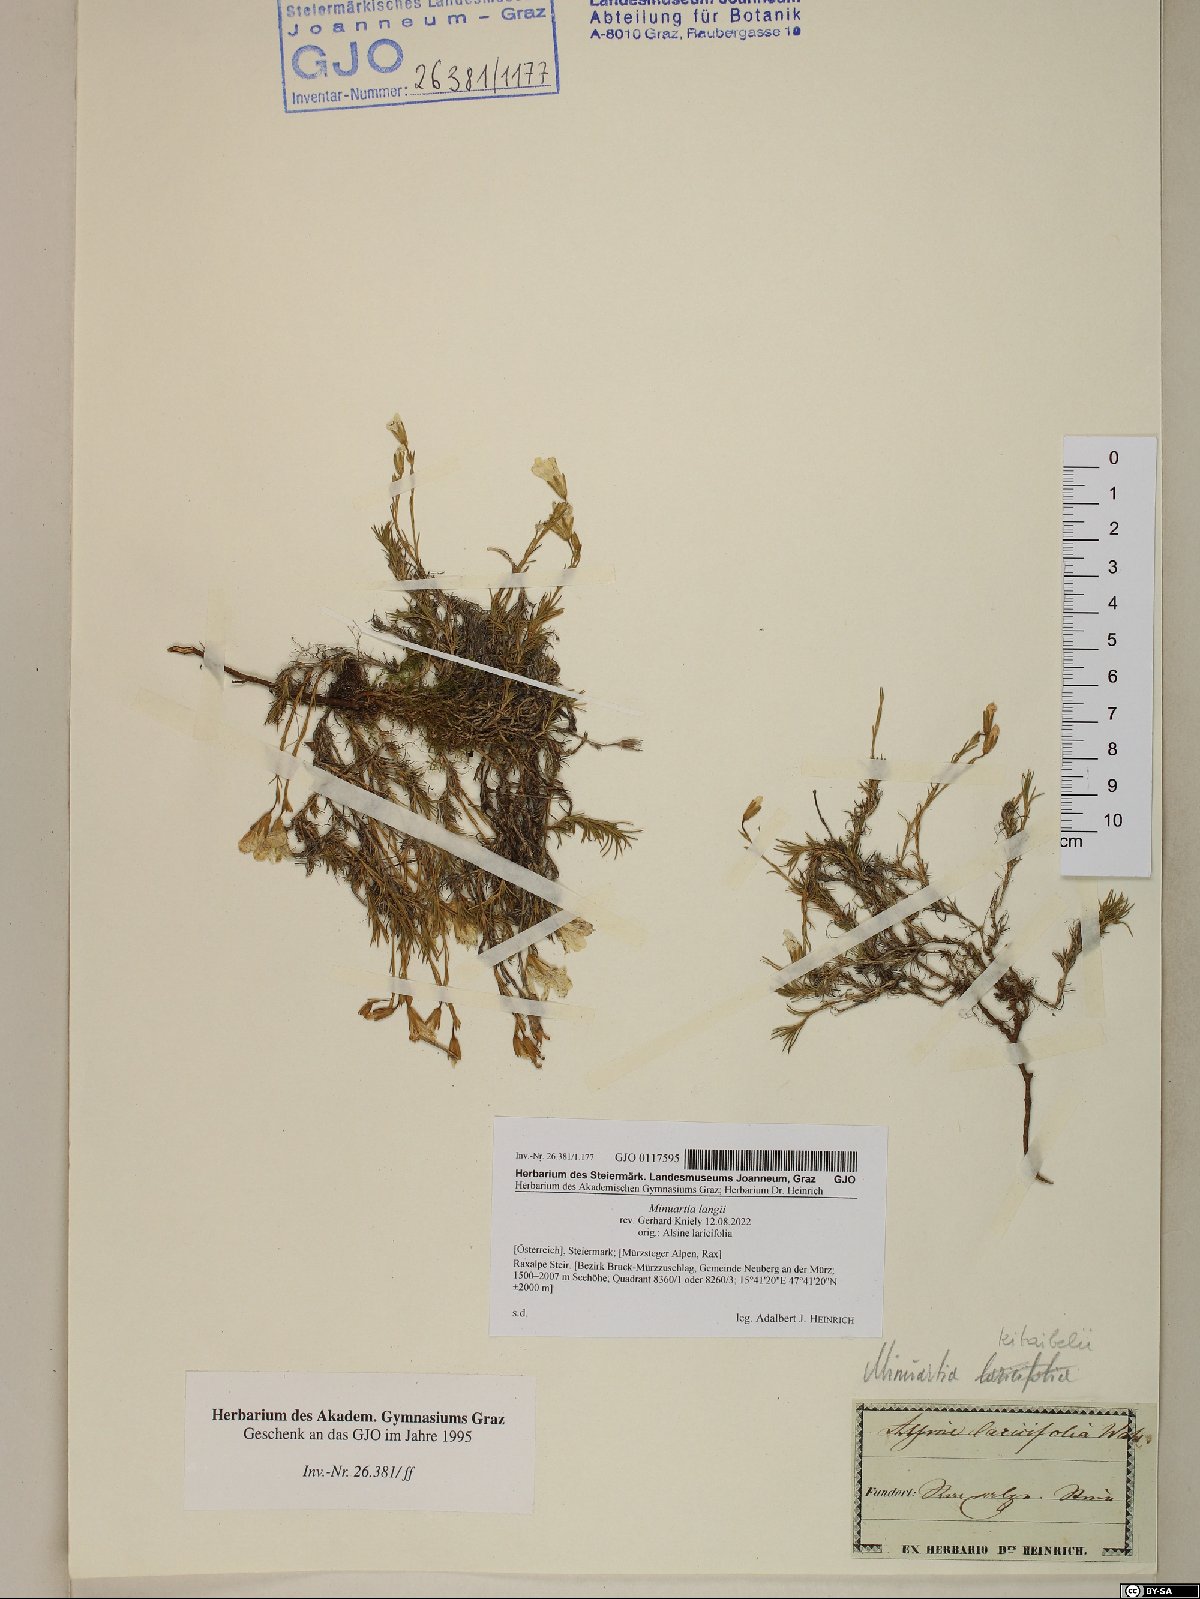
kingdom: Plantae
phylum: Tracheophyta
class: Magnoliopsida
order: Caryophyllales
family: Caryophyllaceae
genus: Cherleria
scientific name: Cherleria langii
